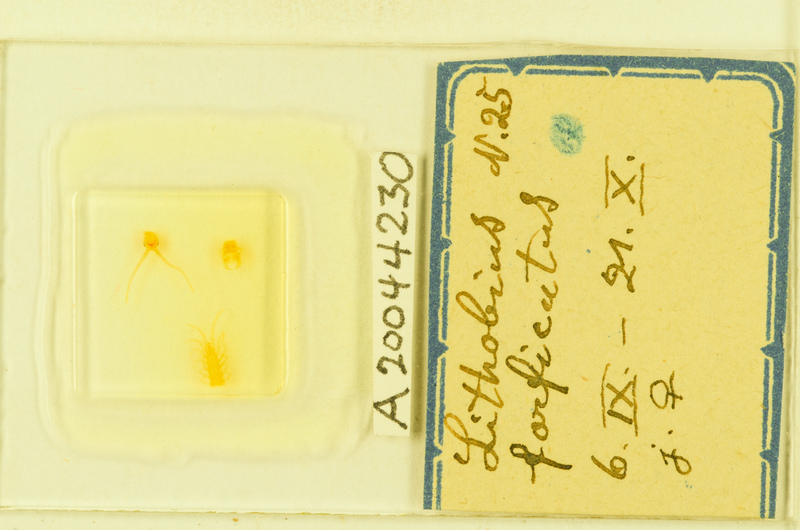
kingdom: Animalia
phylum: Arthropoda
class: Chilopoda
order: Lithobiomorpha
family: Lithobiidae
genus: Lithobius
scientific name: Lithobius forficatus
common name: Centipede
